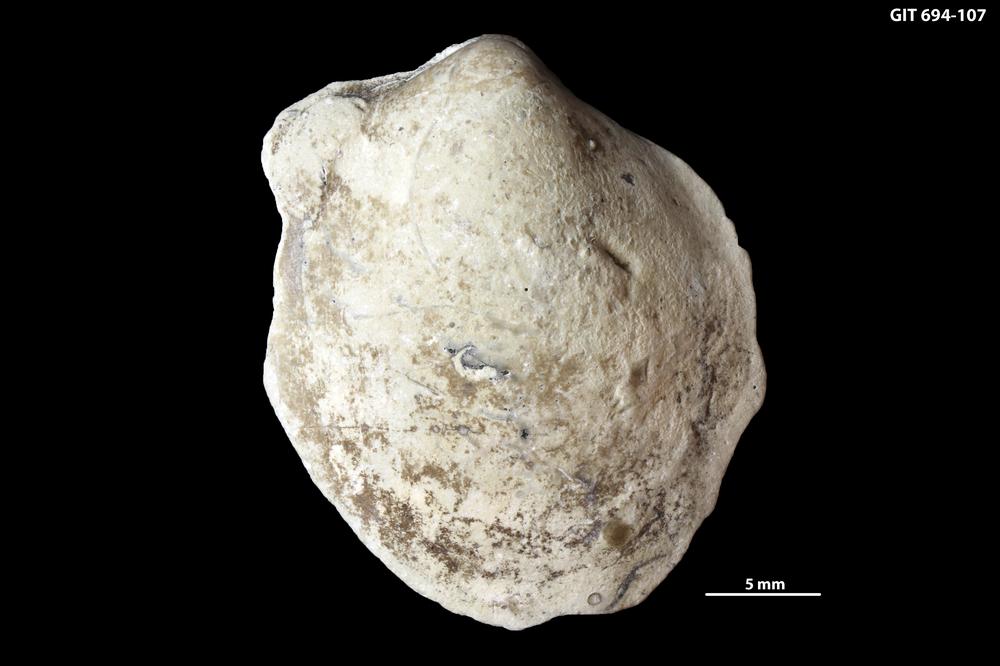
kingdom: Animalia
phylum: Mollusca
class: Bivalvia
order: Modiomorphida
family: Modiomorphidae
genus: Aristerella
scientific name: Aristerella
